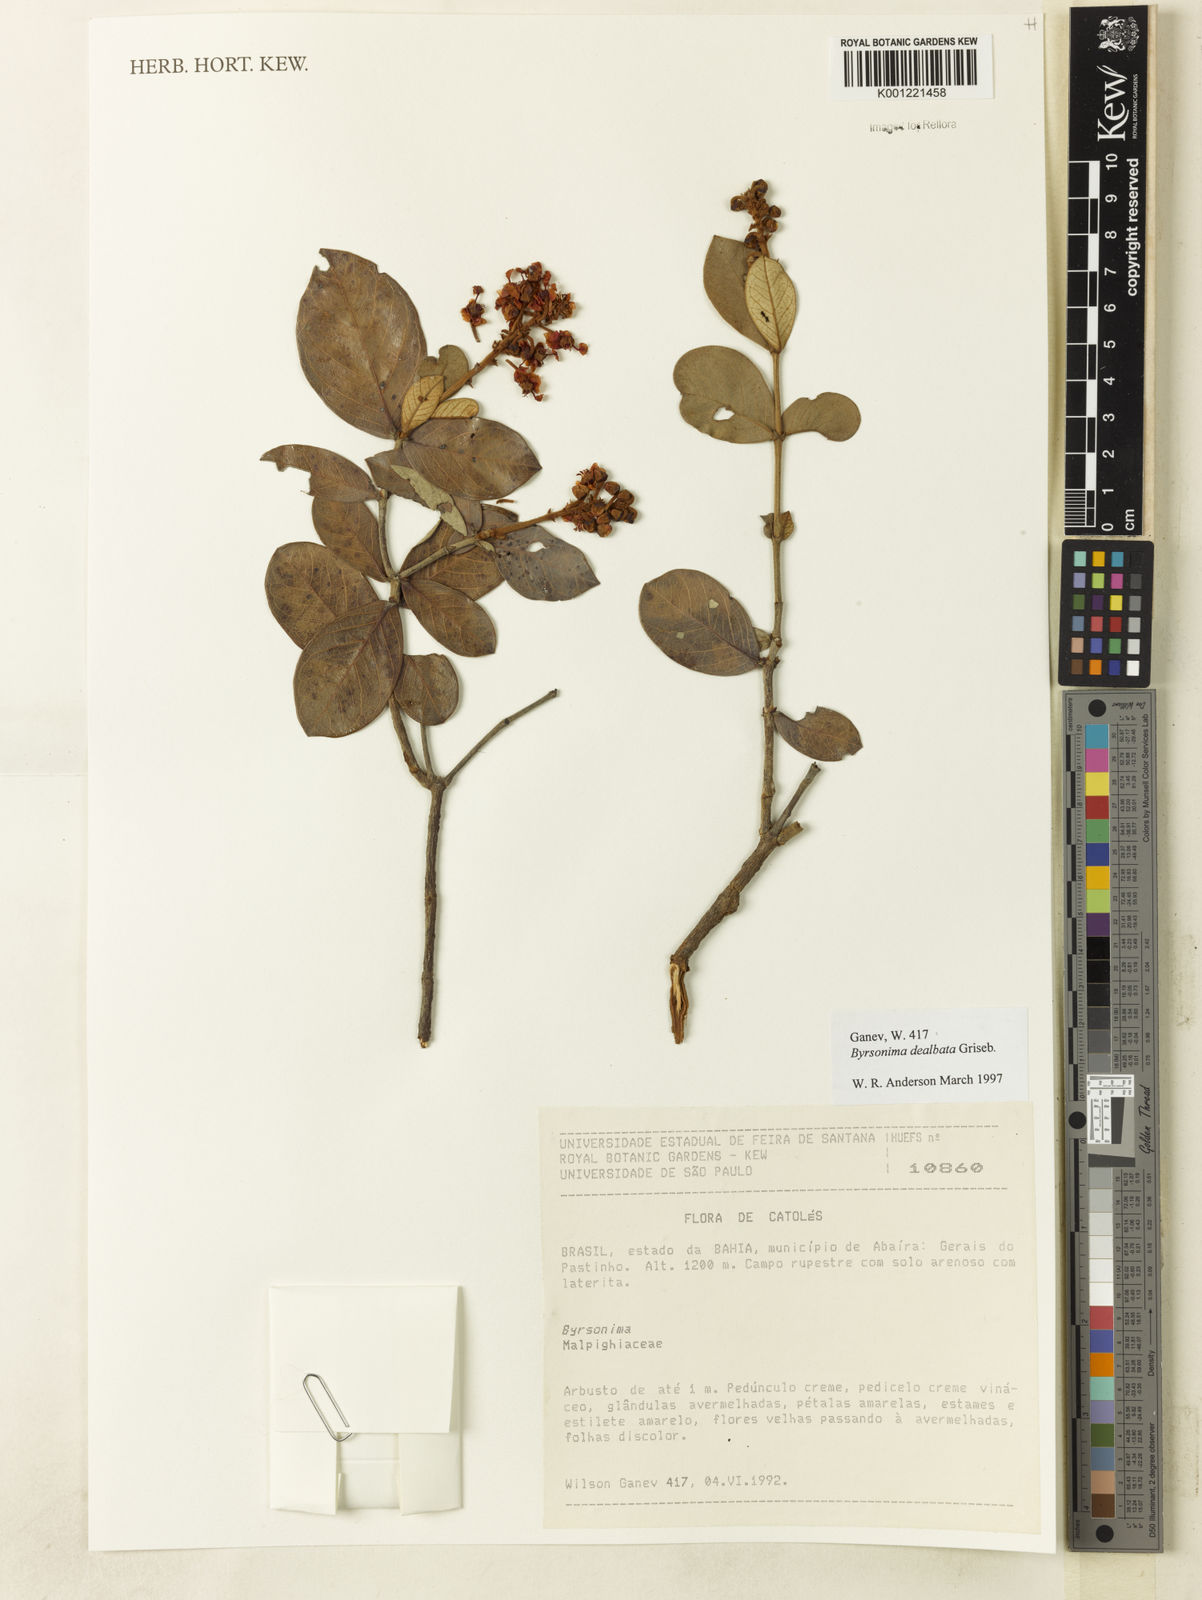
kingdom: Plantae
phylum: Tracheophyta
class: Magnoliopsida
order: Malpighiales
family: Malpighiaceae
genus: Byrsonima
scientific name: Byrsonima dealbata
